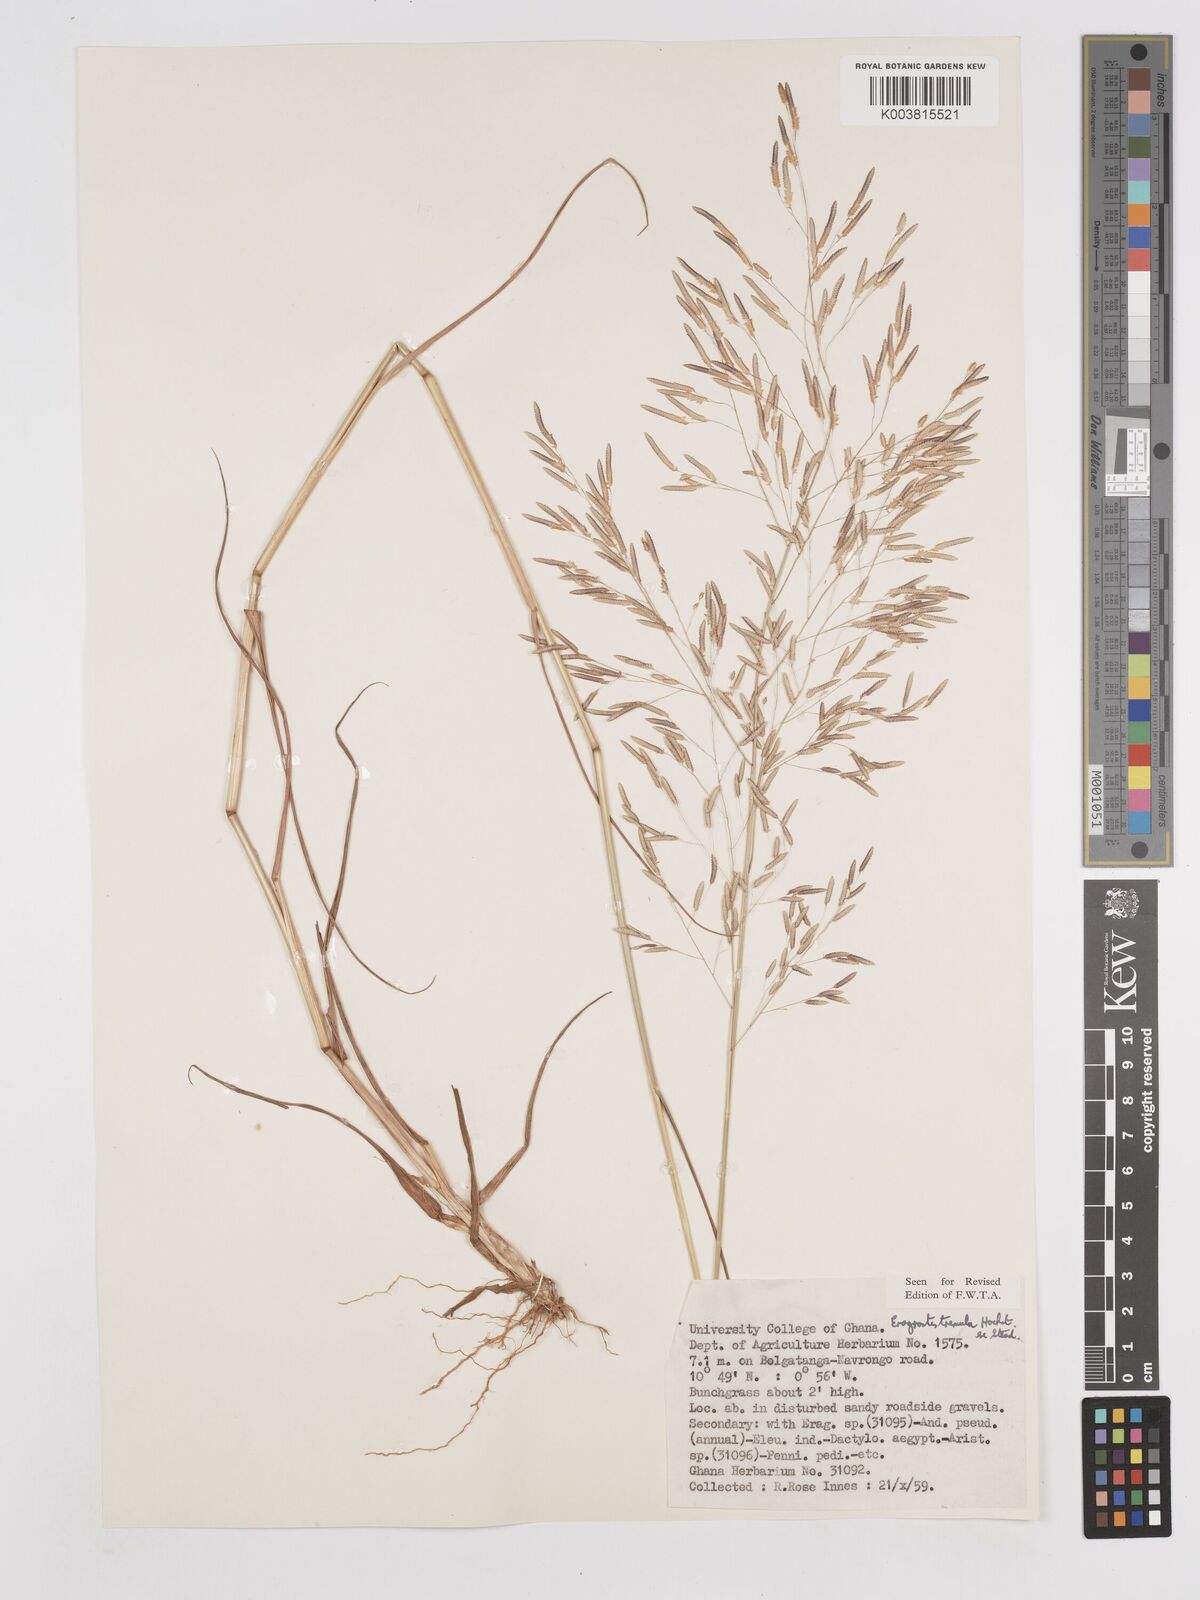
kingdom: Plantae
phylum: Tracheophyta
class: Liliopsida
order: Poales
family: Poaceae
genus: Eragrostis
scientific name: Eragrostis tremula
